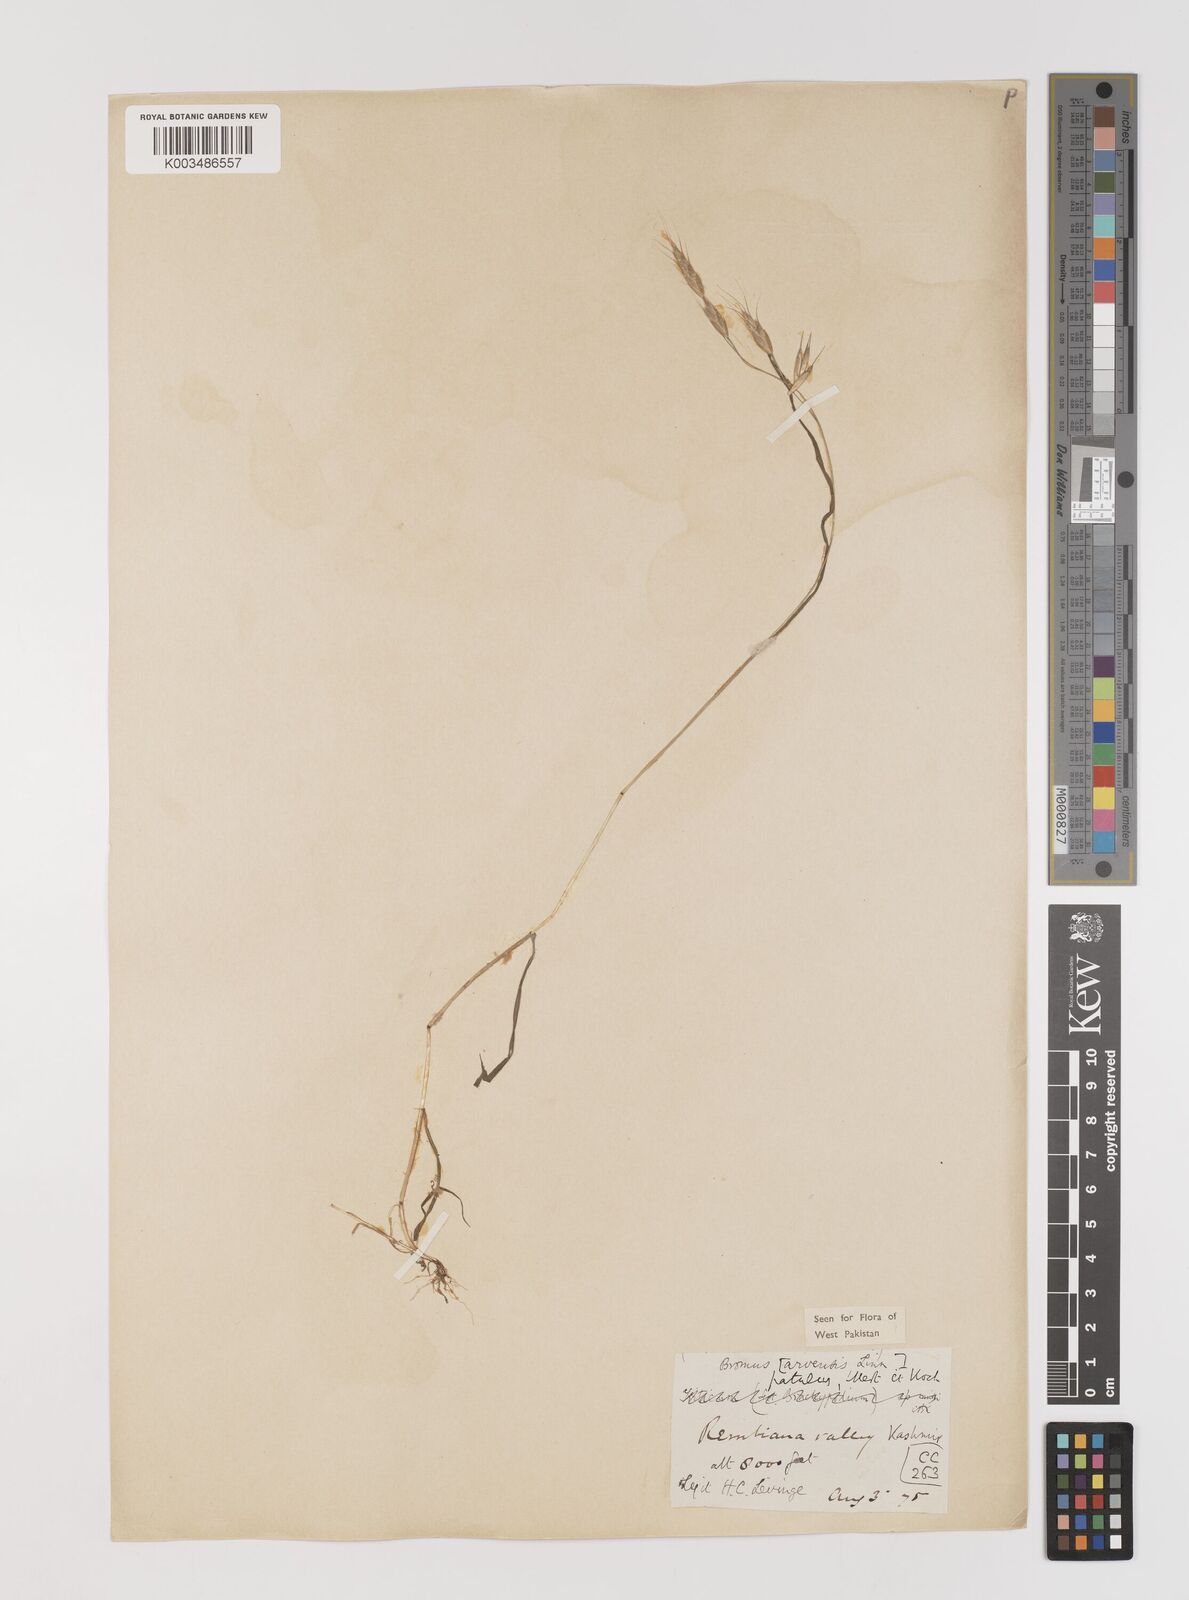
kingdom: Plantae
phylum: Tracheophyta
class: Liliopsida
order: Poales
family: Poaceae
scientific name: Poaceae
